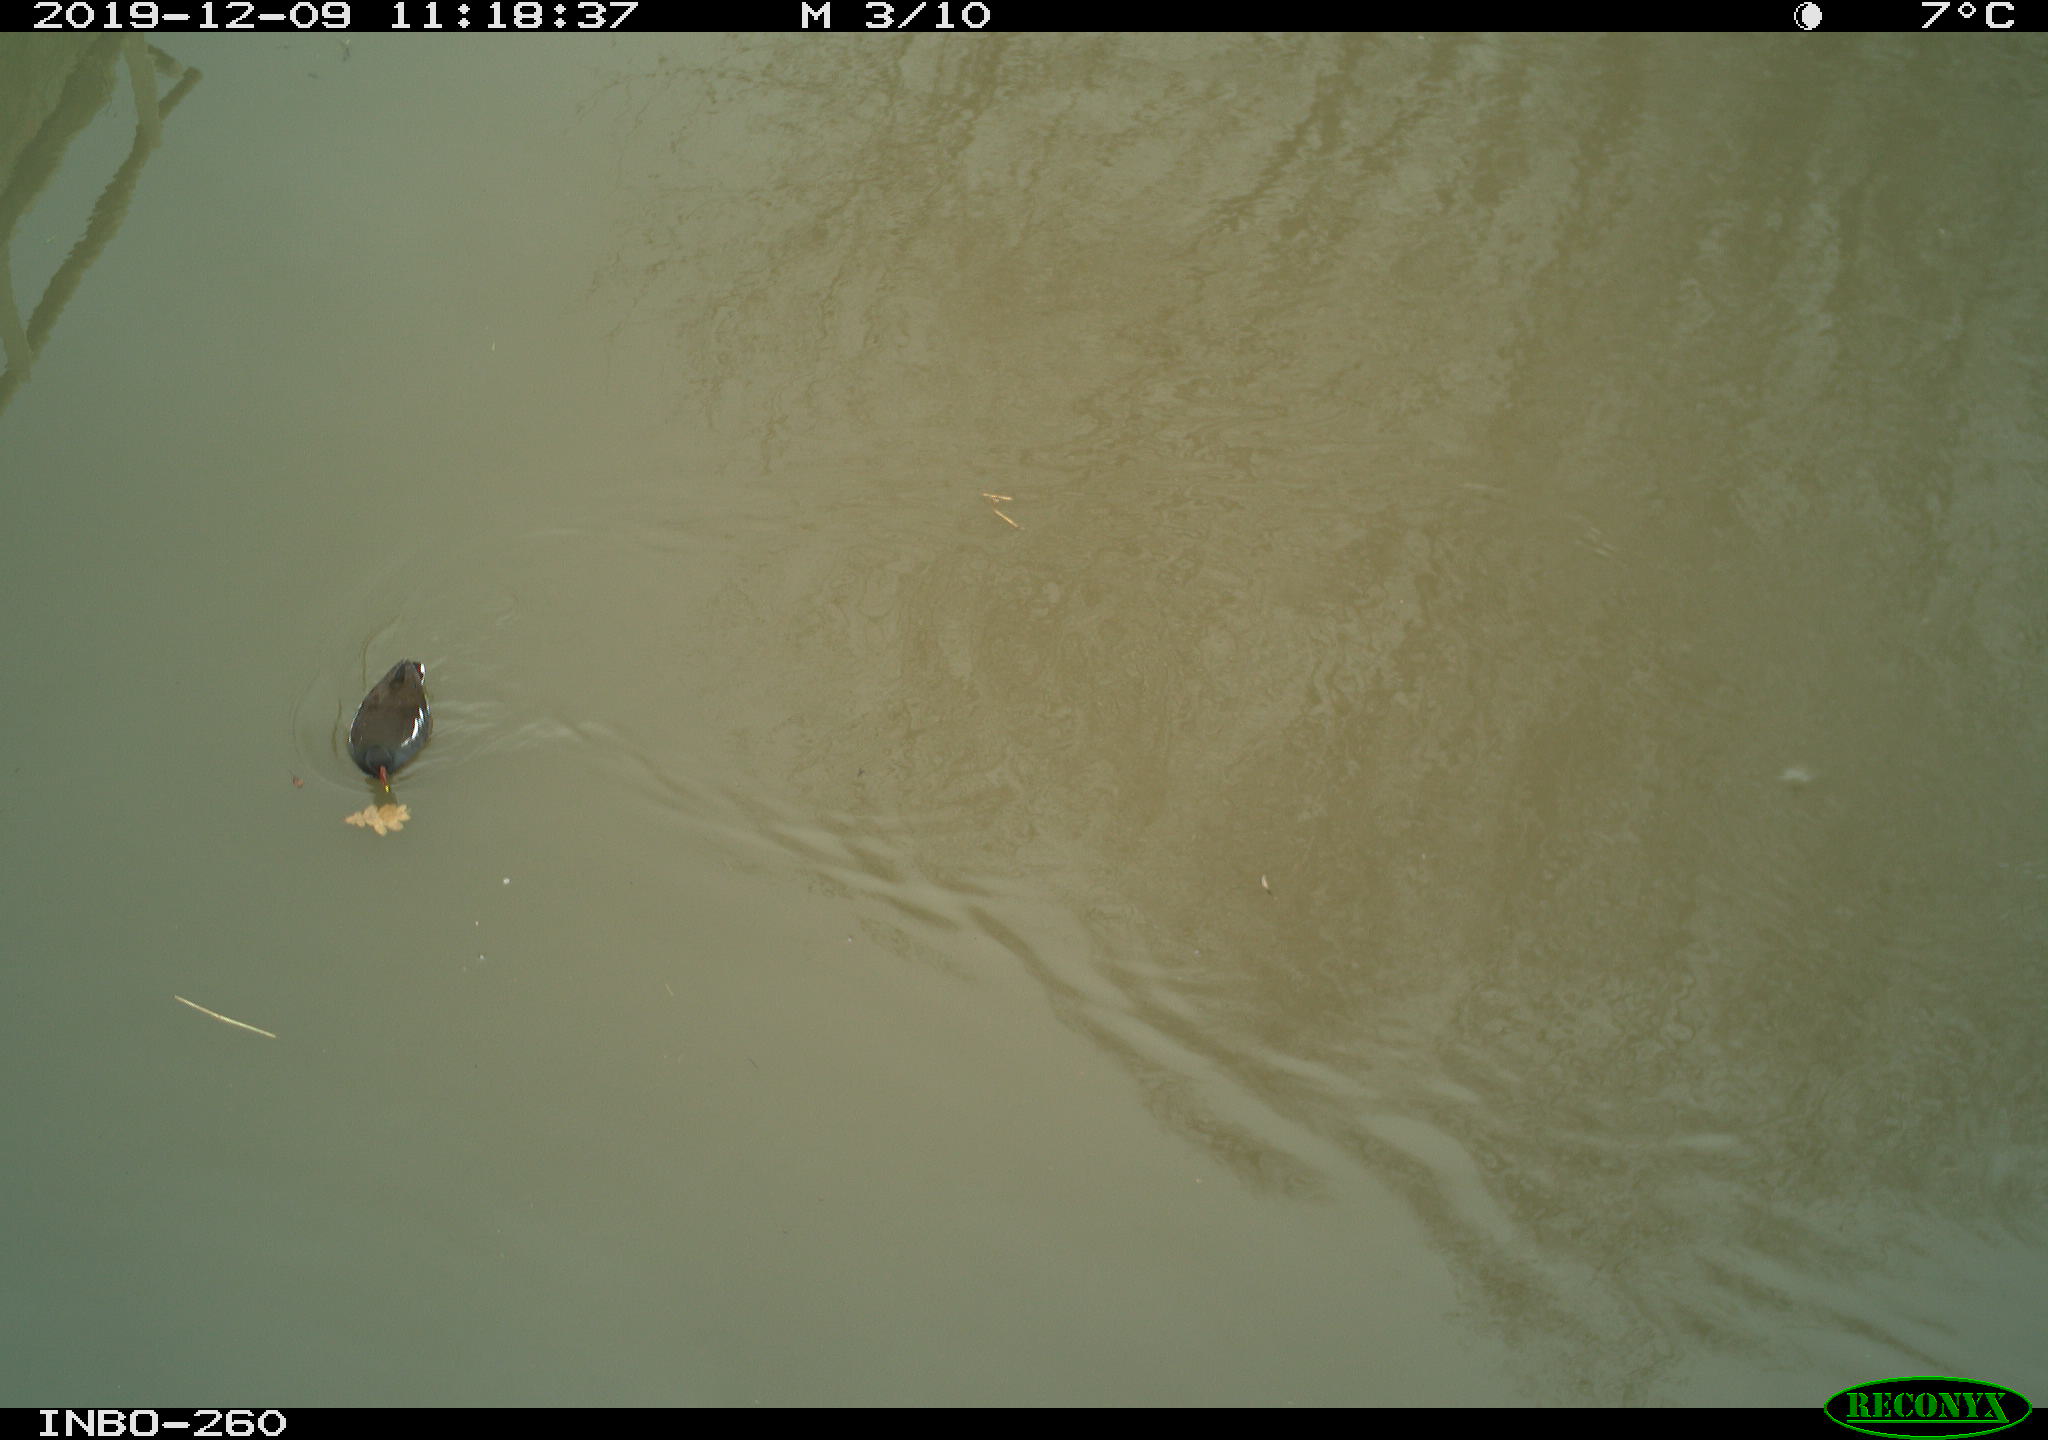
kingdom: Animalia
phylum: Chordata
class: Aves
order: Gruiformes
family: Rallidae
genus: Gallinula
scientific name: Gallinula chloropus
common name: Common moorhen
